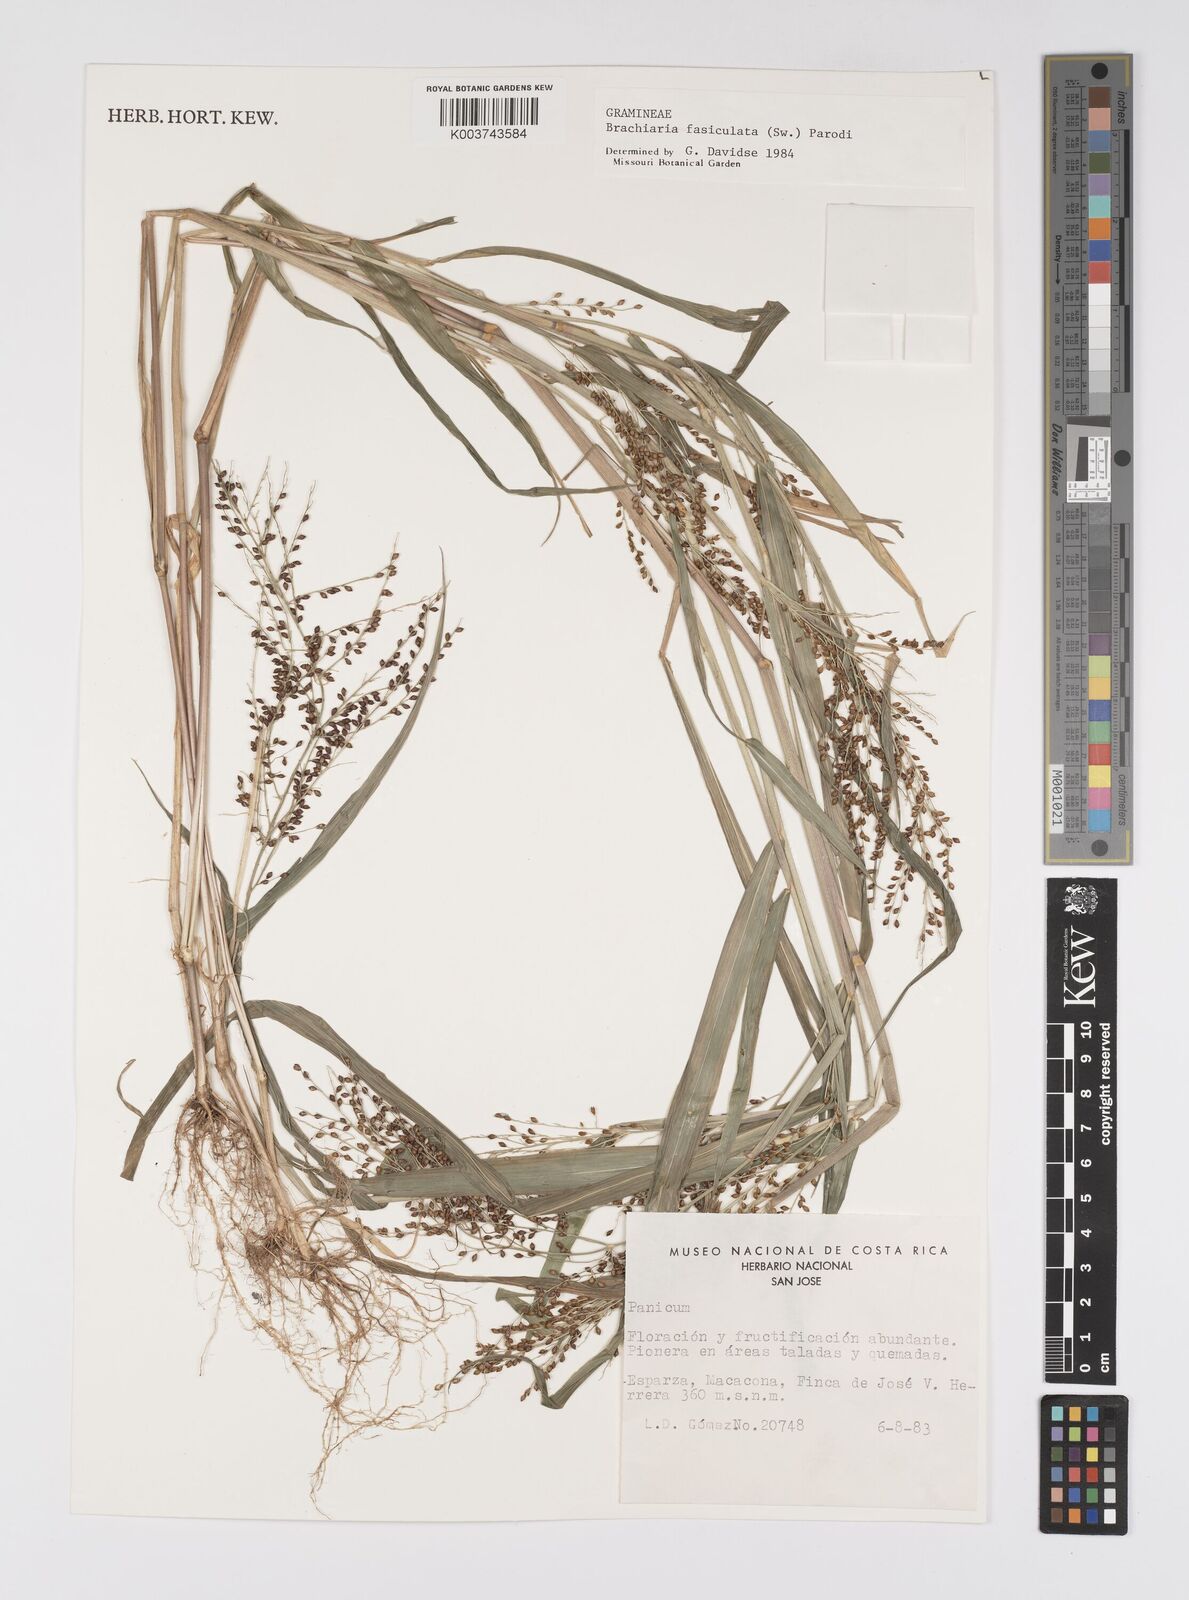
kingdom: Plantae
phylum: Tracheophyta
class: Liliopsida
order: Poales
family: Poaceae
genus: Urochloa
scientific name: Urochloa fusca
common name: Browntop signal grass
